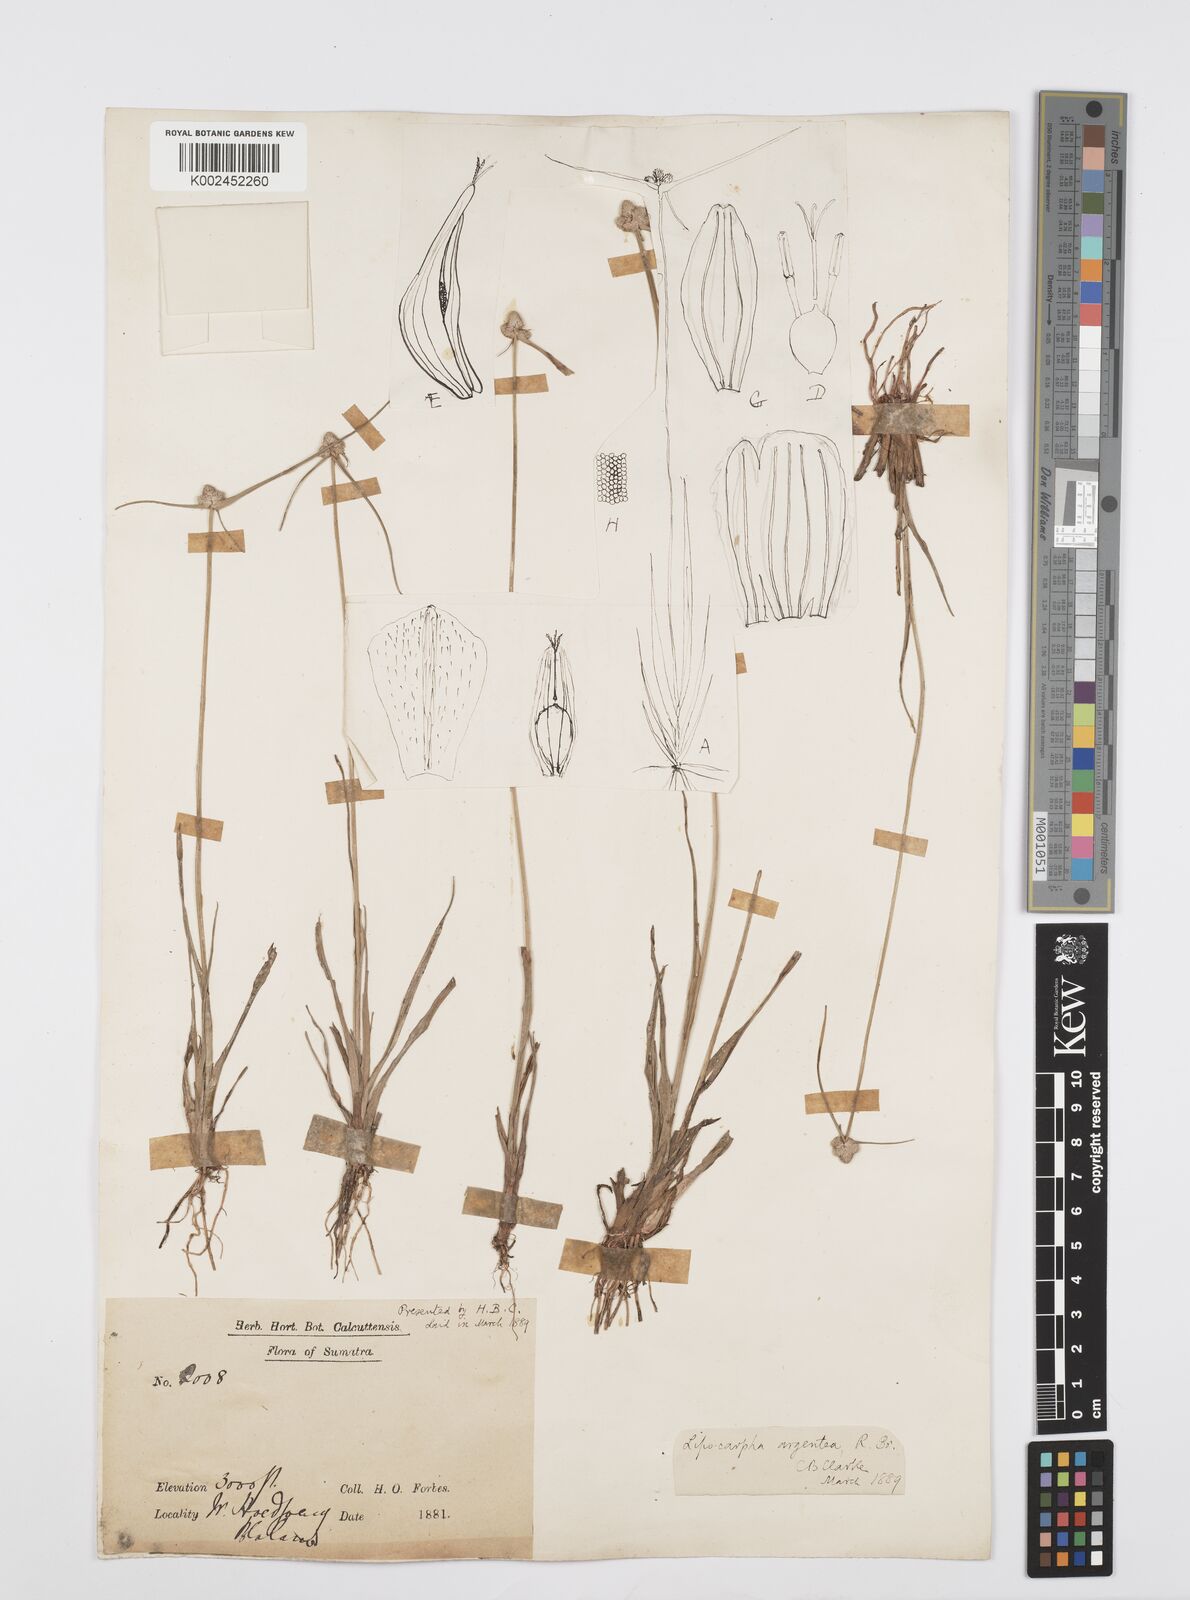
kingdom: Plantae
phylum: Tracheophyta
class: Liliopsida
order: Poales
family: Cyperaceae
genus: Cyperus
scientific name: Cyperus
